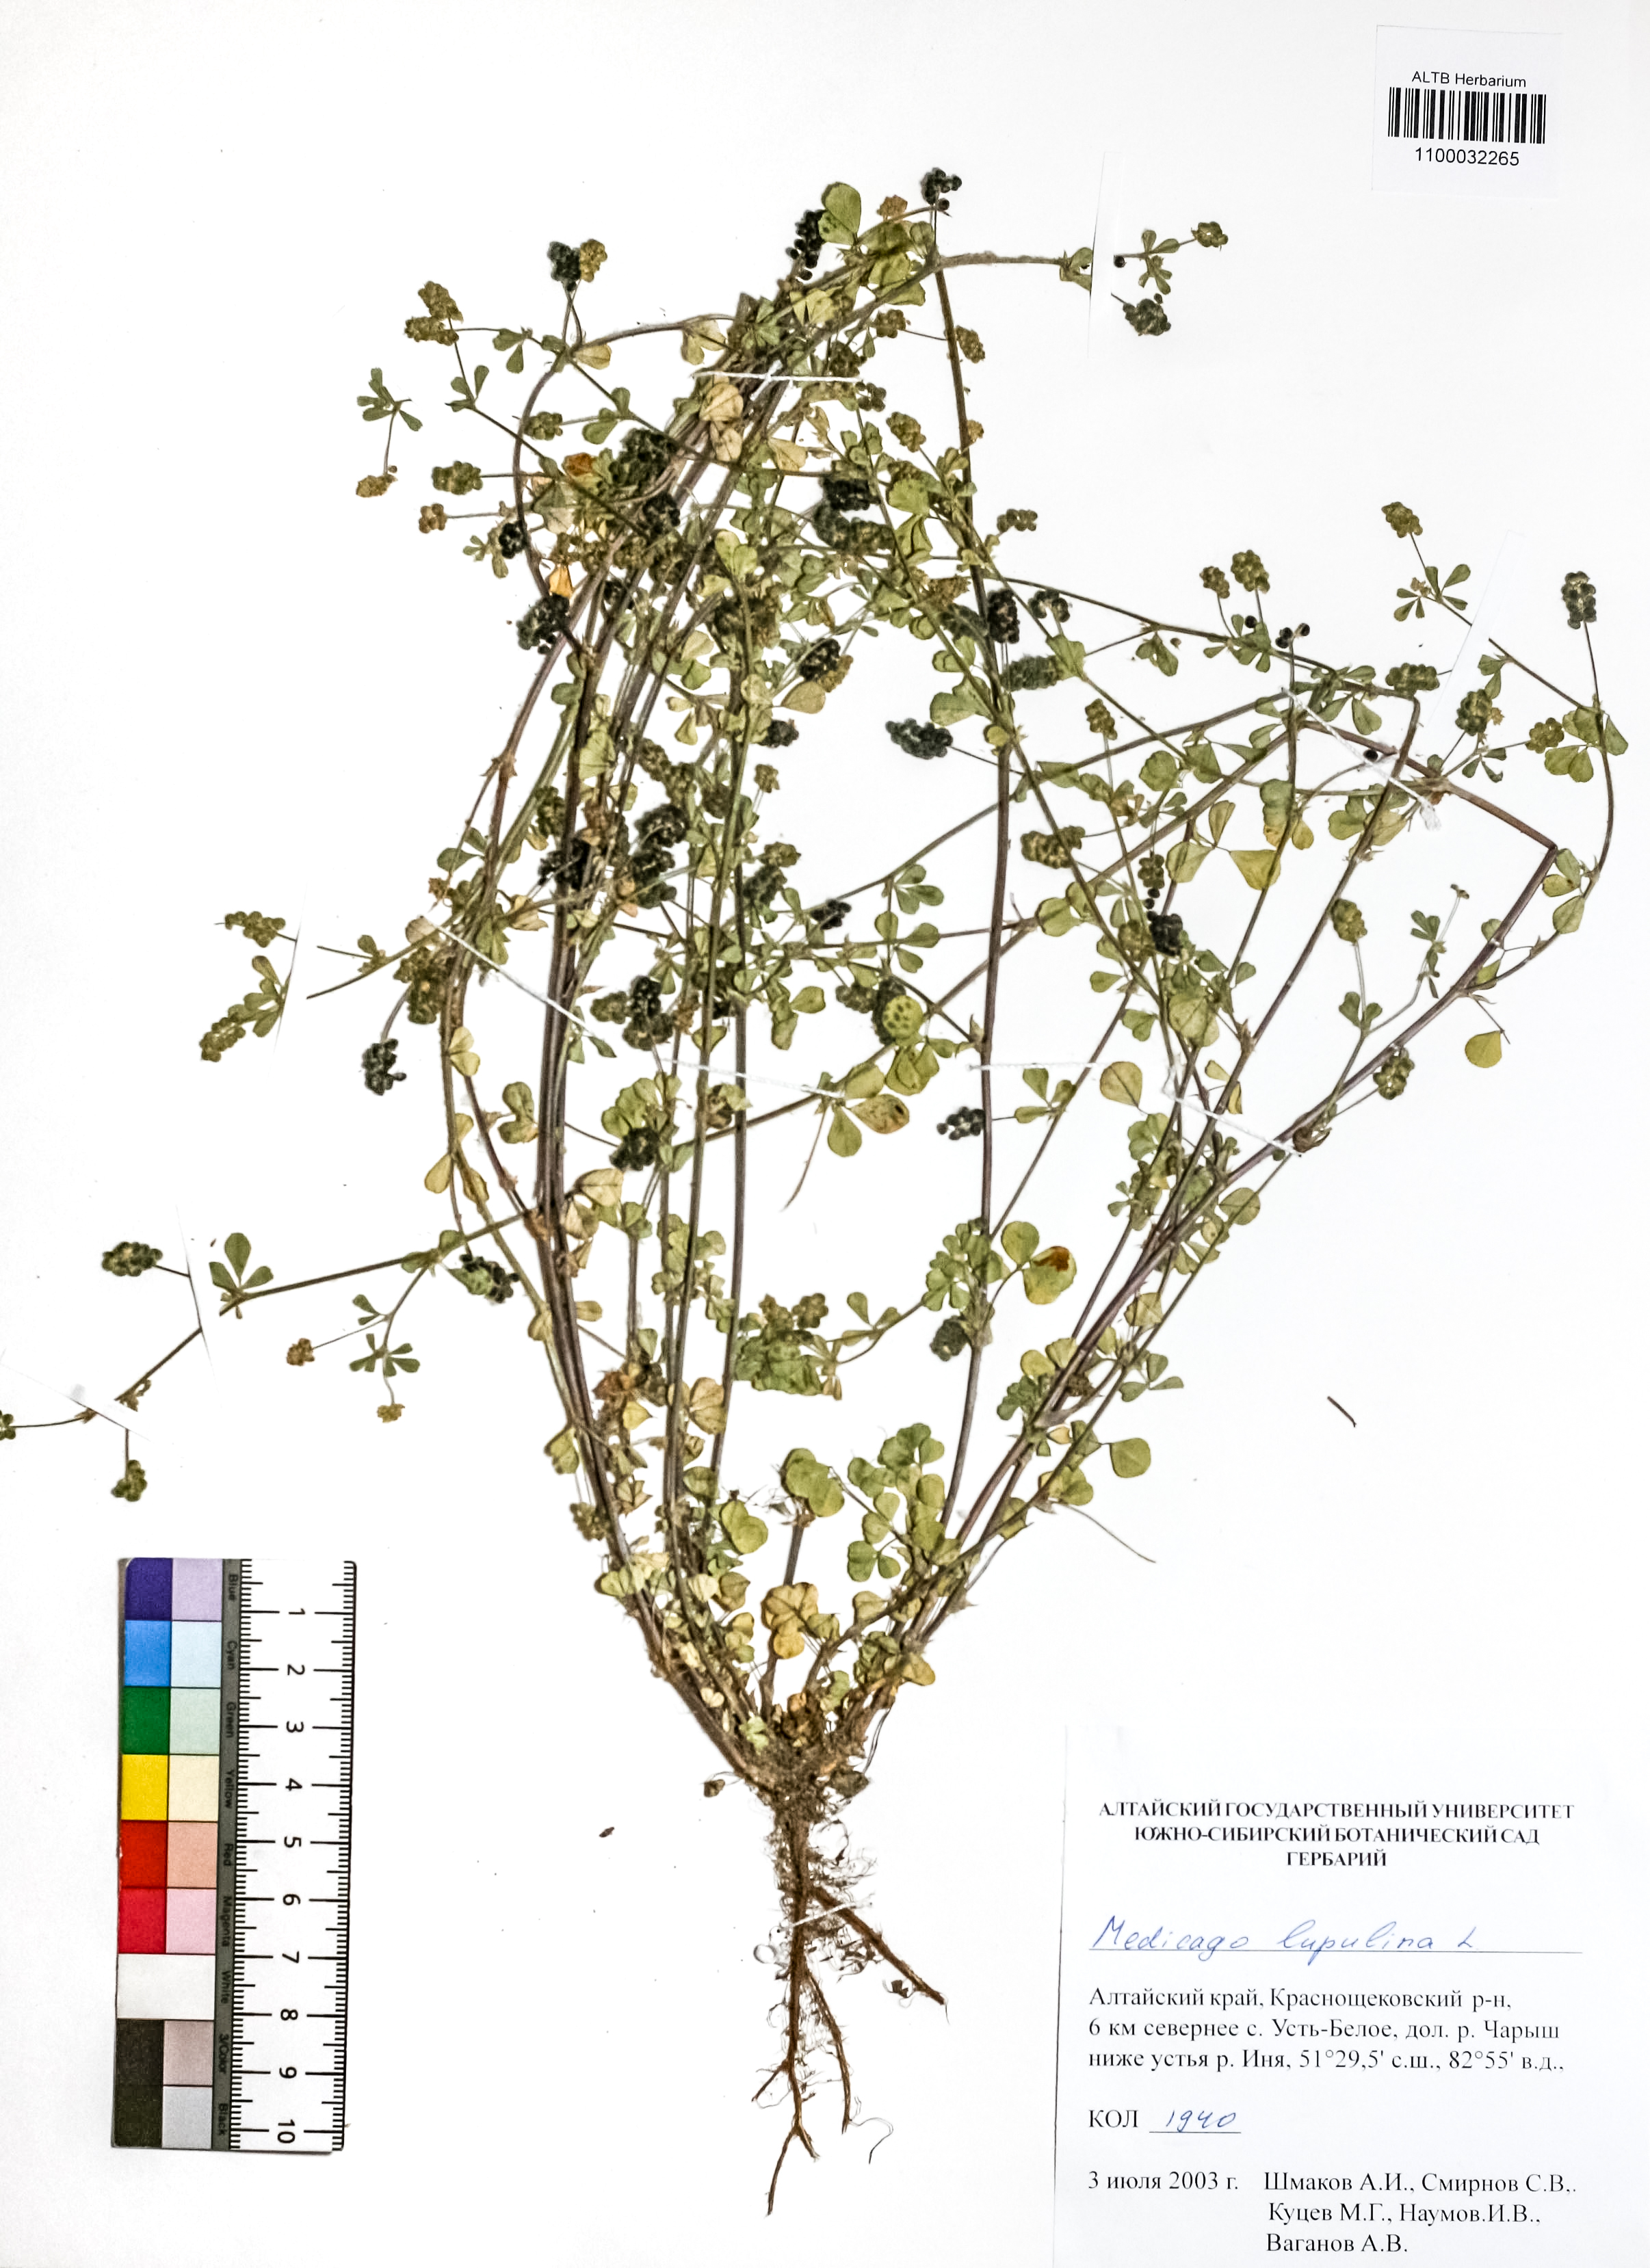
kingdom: Plantae
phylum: Tracheophyta
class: Magnoliopsida
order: Fabales
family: Fabaceae
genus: Medicago
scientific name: Medicago lupulina
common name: Black medick
